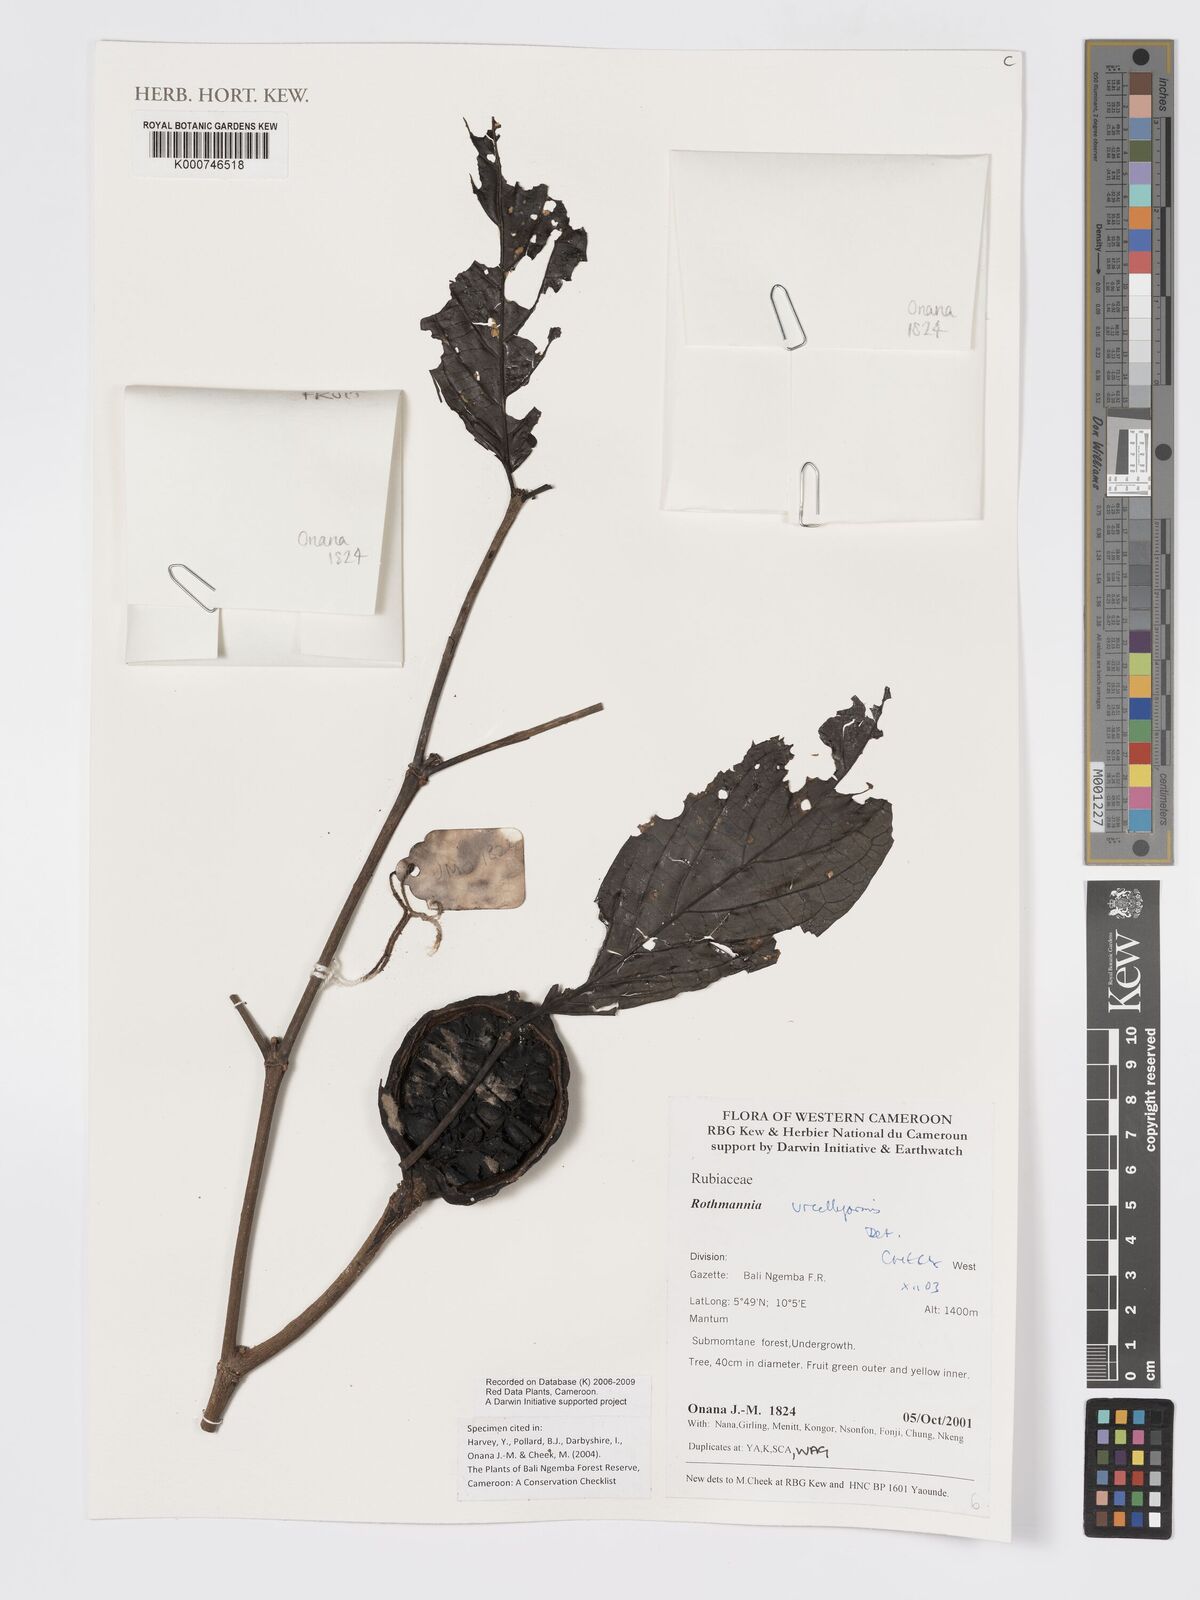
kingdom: Plantae
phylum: Tracheophyta
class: Magnoliopsida
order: Gentianales
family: Rubiaceae
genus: Rothmannia
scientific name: Rothmannia urcelliformis
